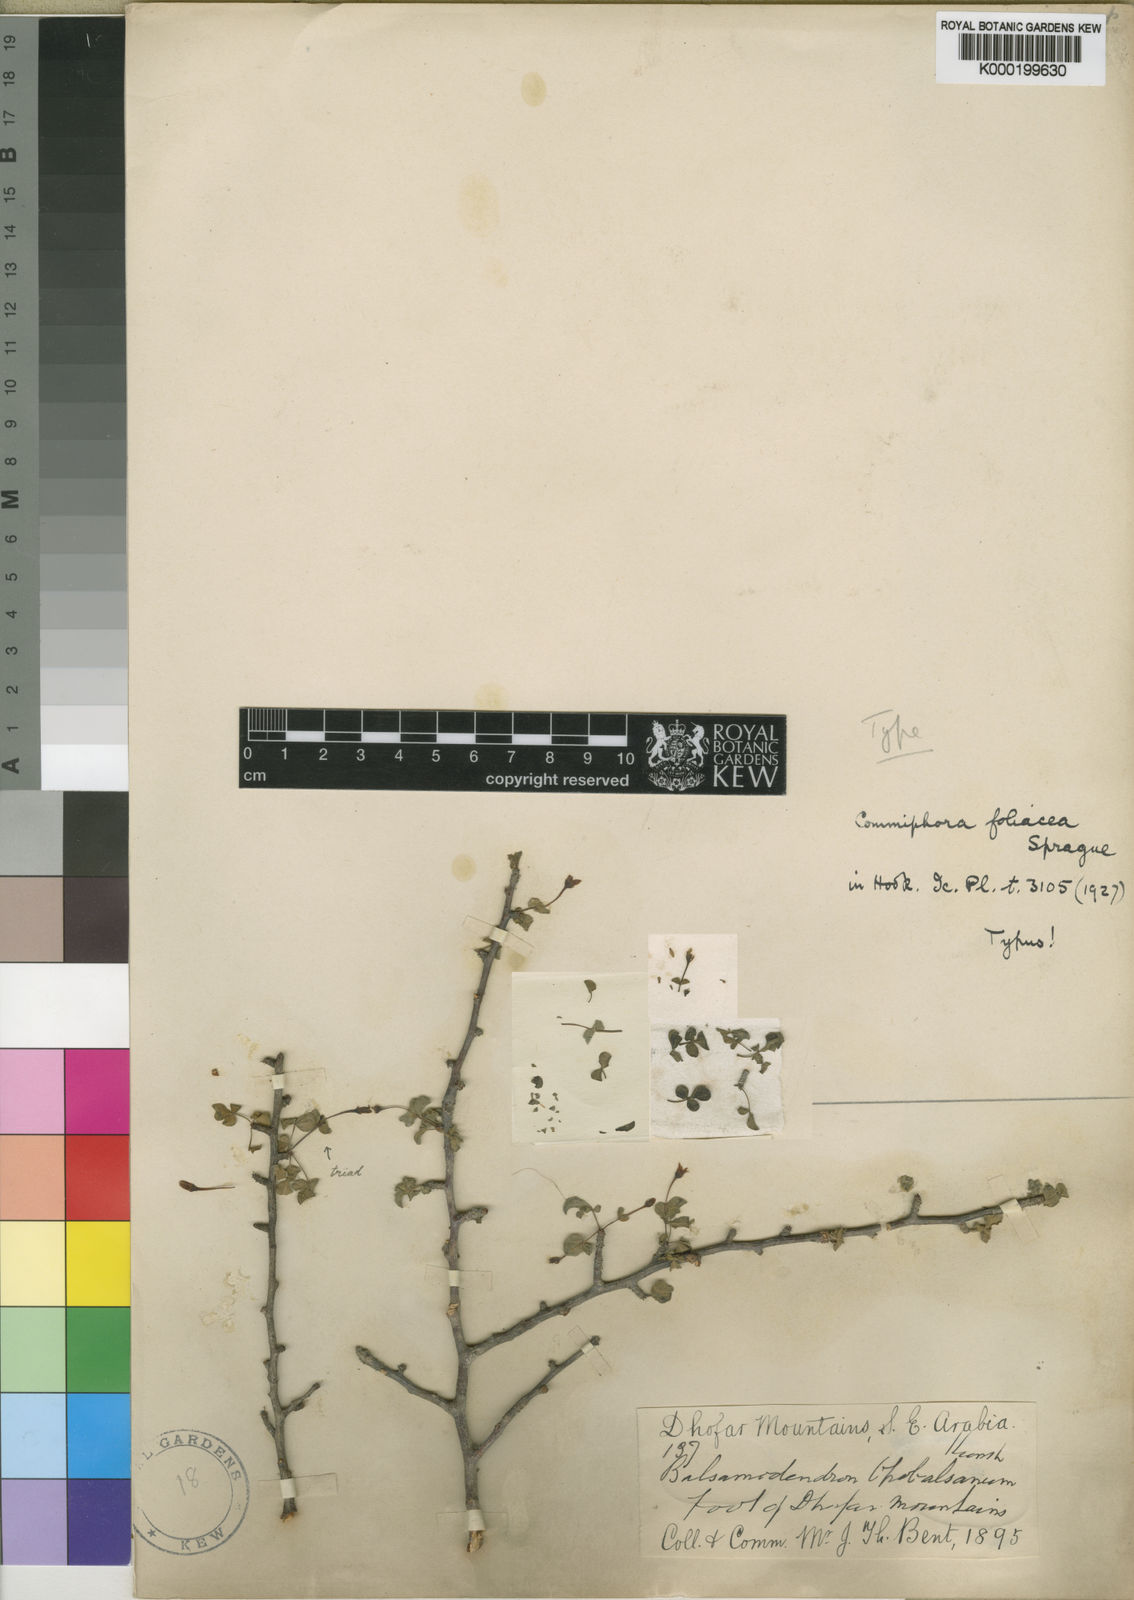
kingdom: Plantae
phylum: Tracheophyta
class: Magnoliopsida
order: Sapindales
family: Burseraceae
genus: Commiphora
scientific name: Commiphora foliacea
